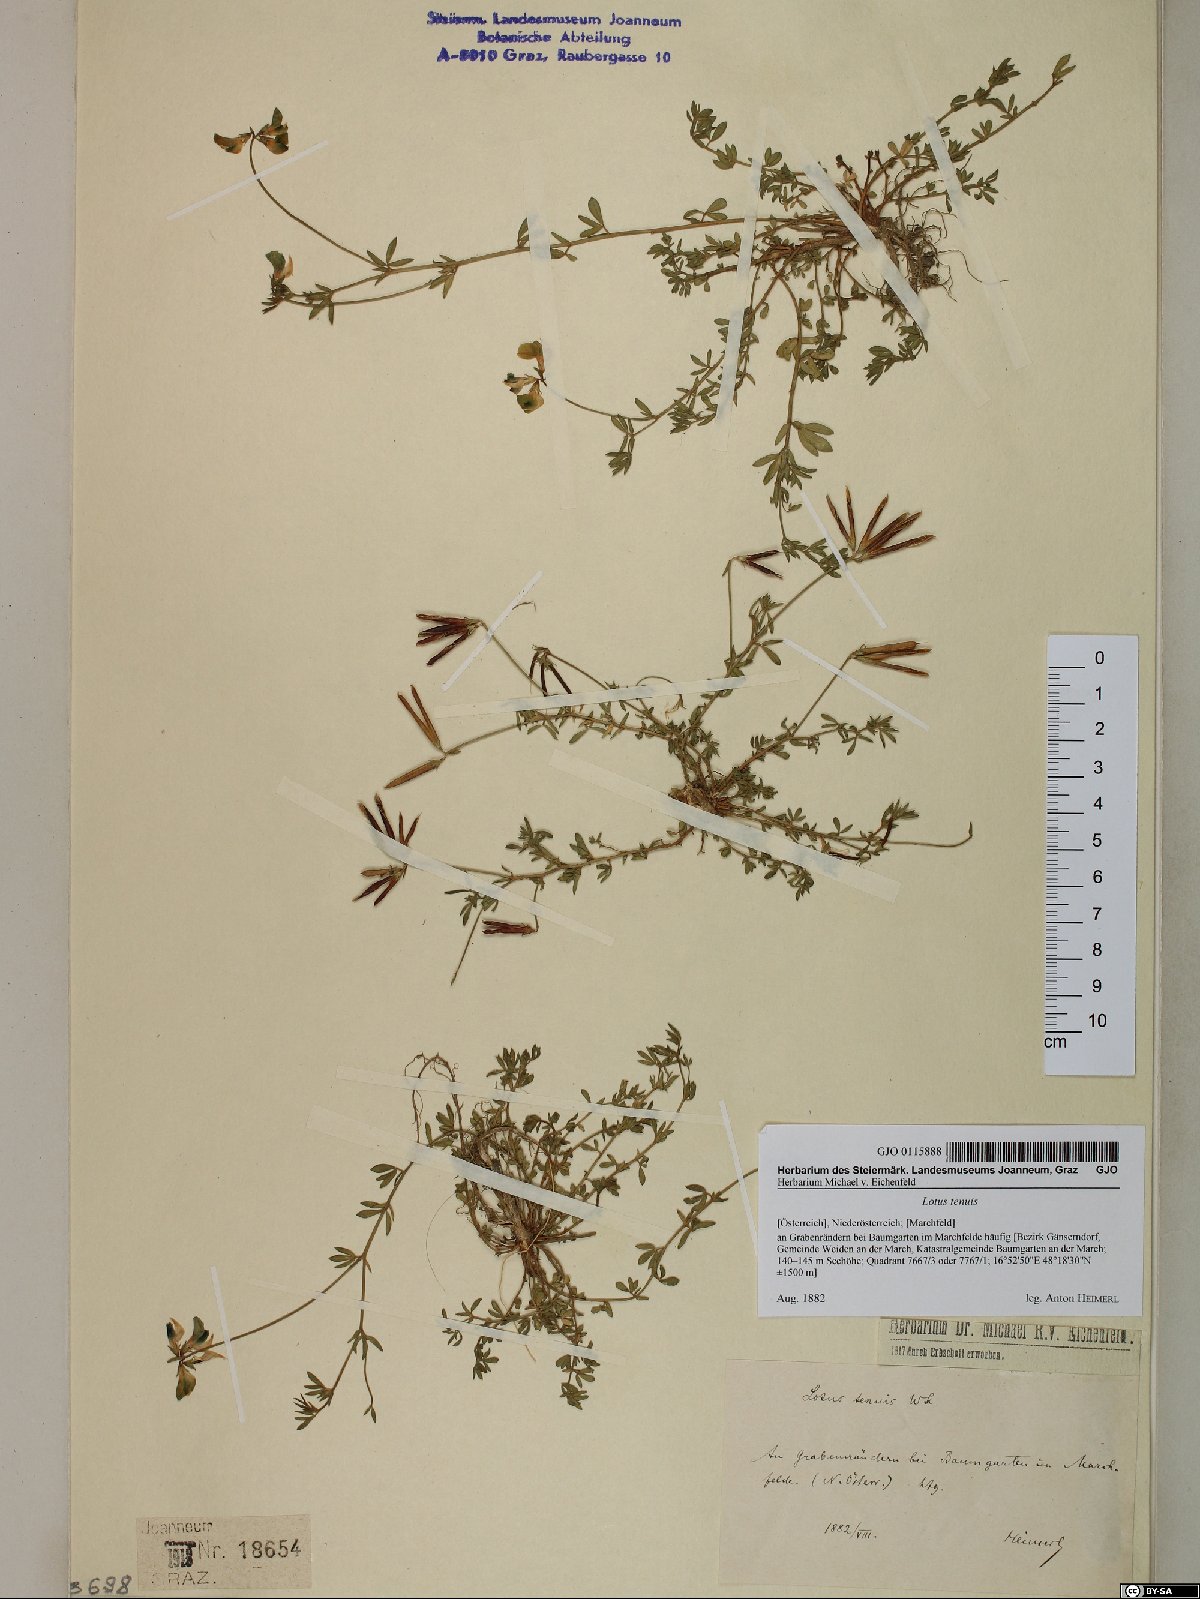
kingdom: Plantae
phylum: Tracheophyta
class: Magnoliopsida
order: Fabales
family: Fabaceae
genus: Lotus
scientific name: Lotus tenuis
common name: Narrow-leaved bird's-foot-trefoil
